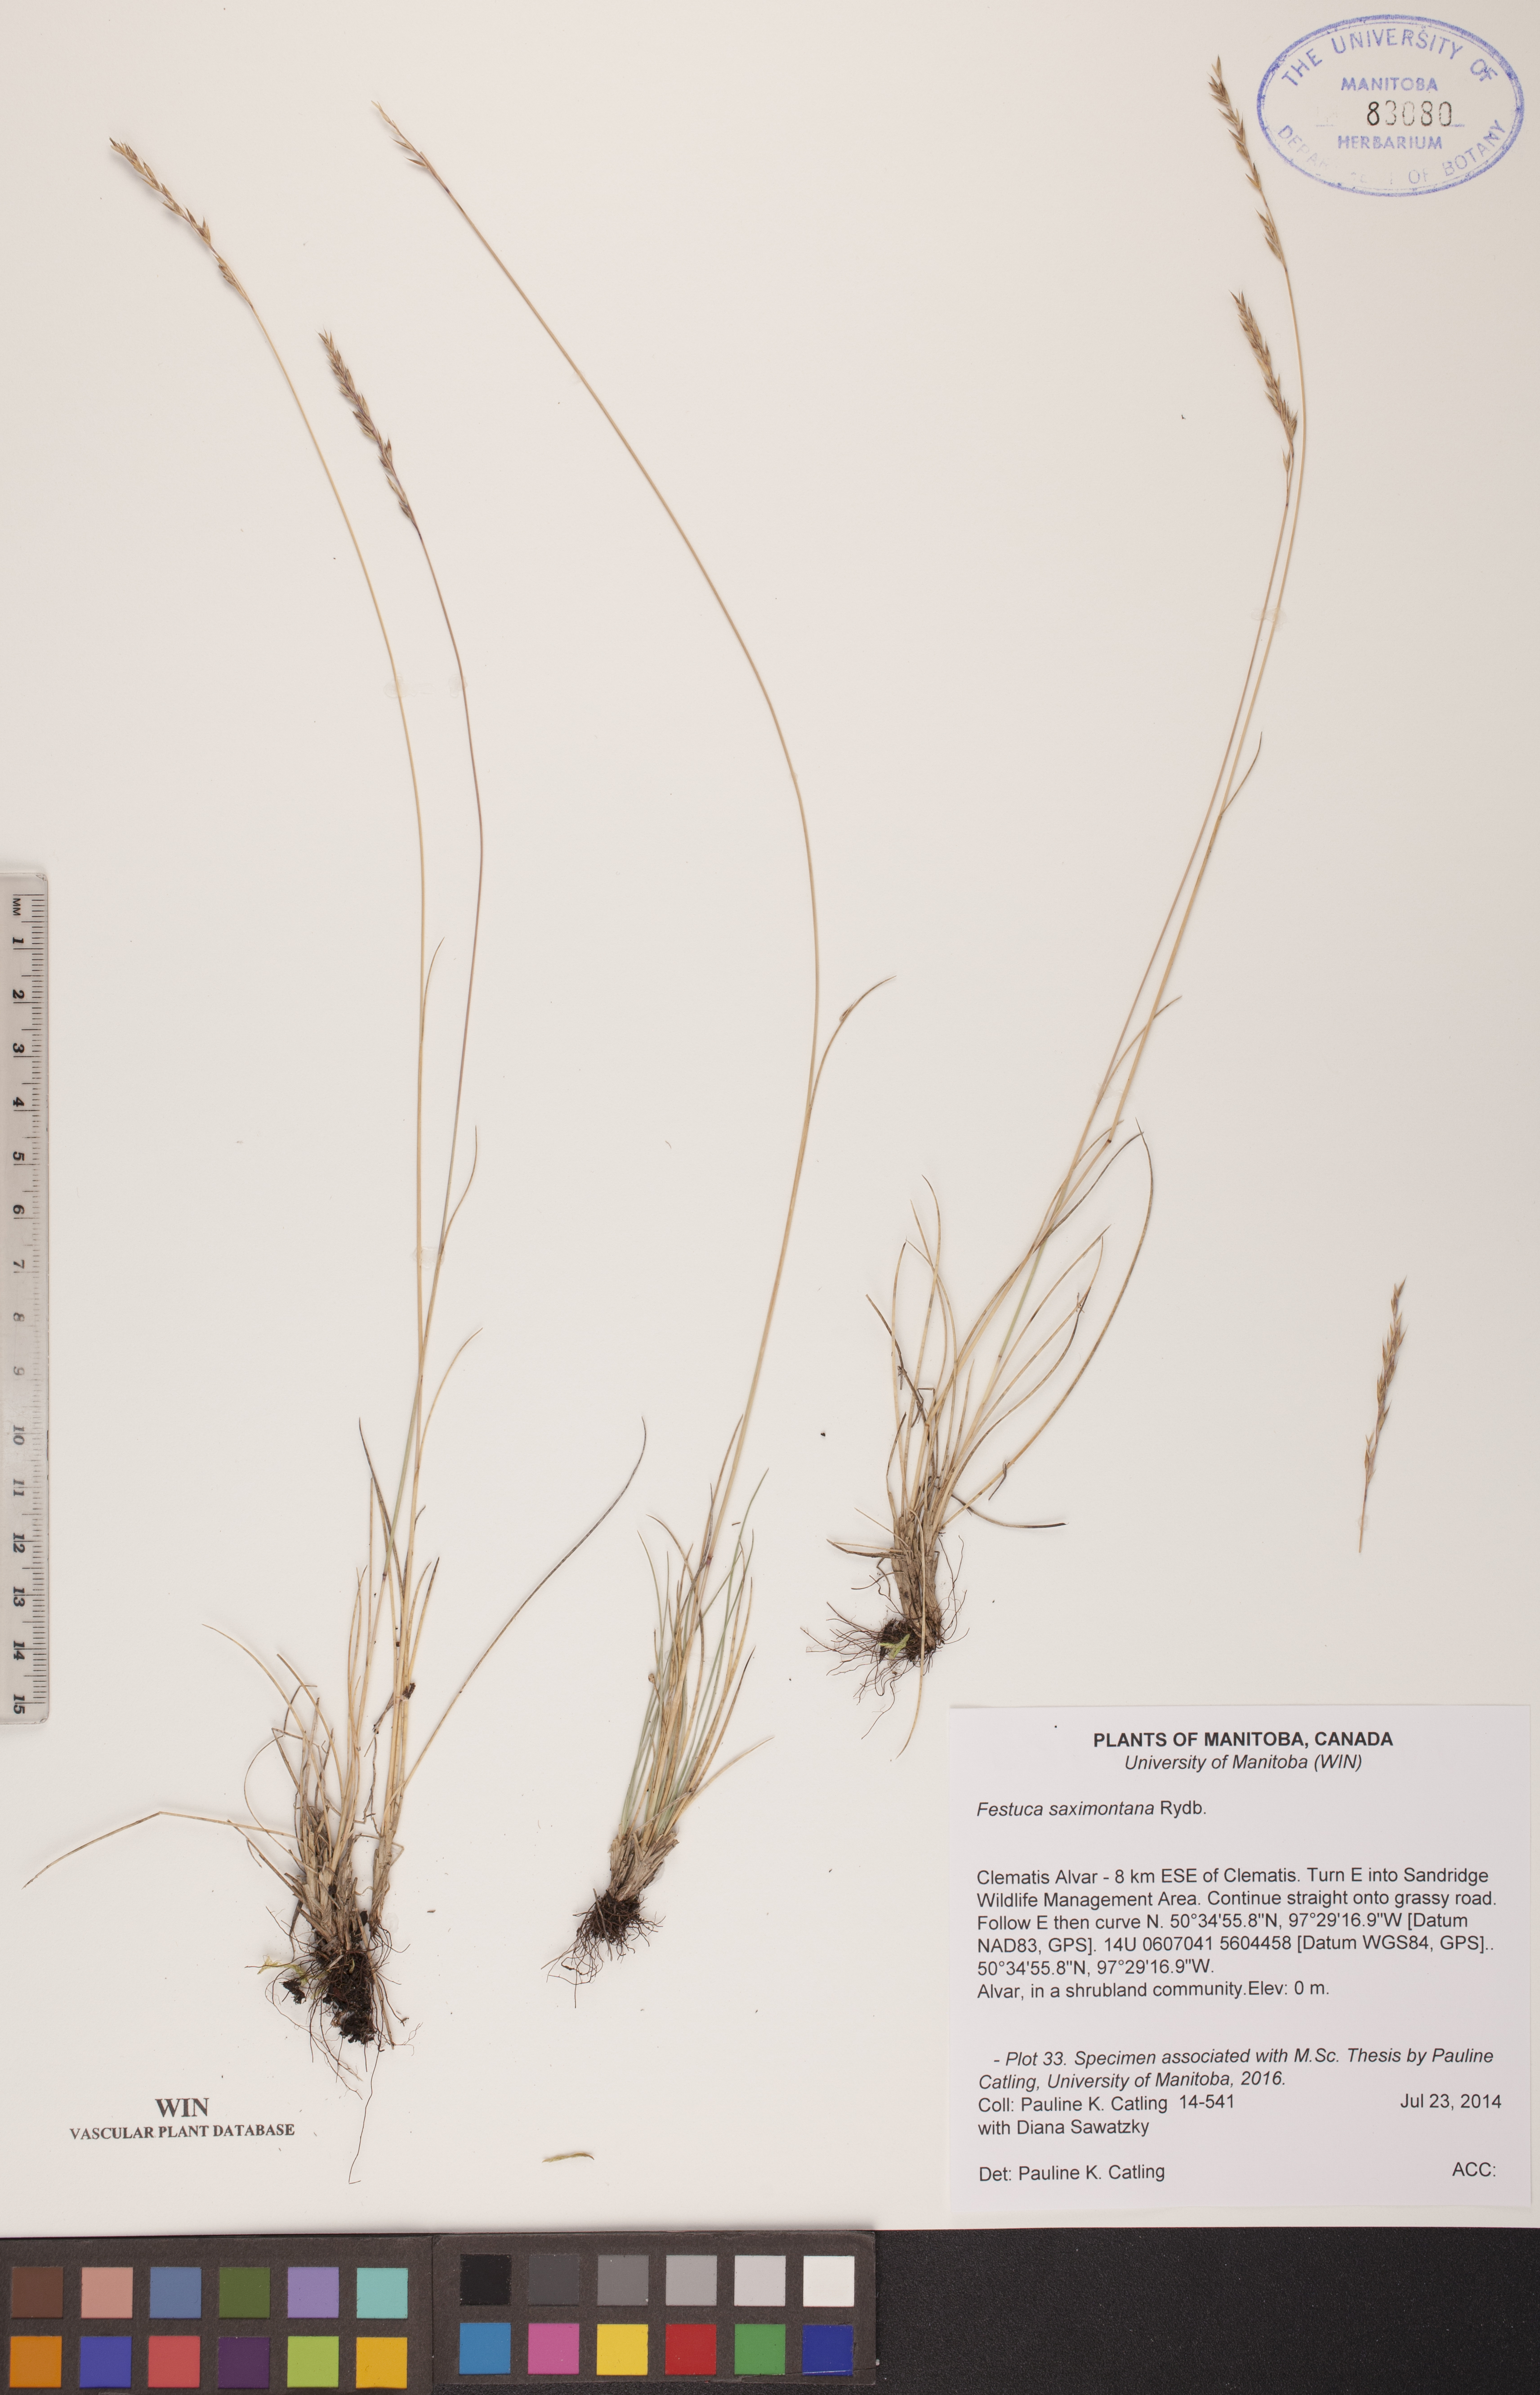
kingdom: Plantae
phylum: Tracheophyta
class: Liliopsida
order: Poales
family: Poaceae
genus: Festuca
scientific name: Festuca saximontana
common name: Mountain fescue
